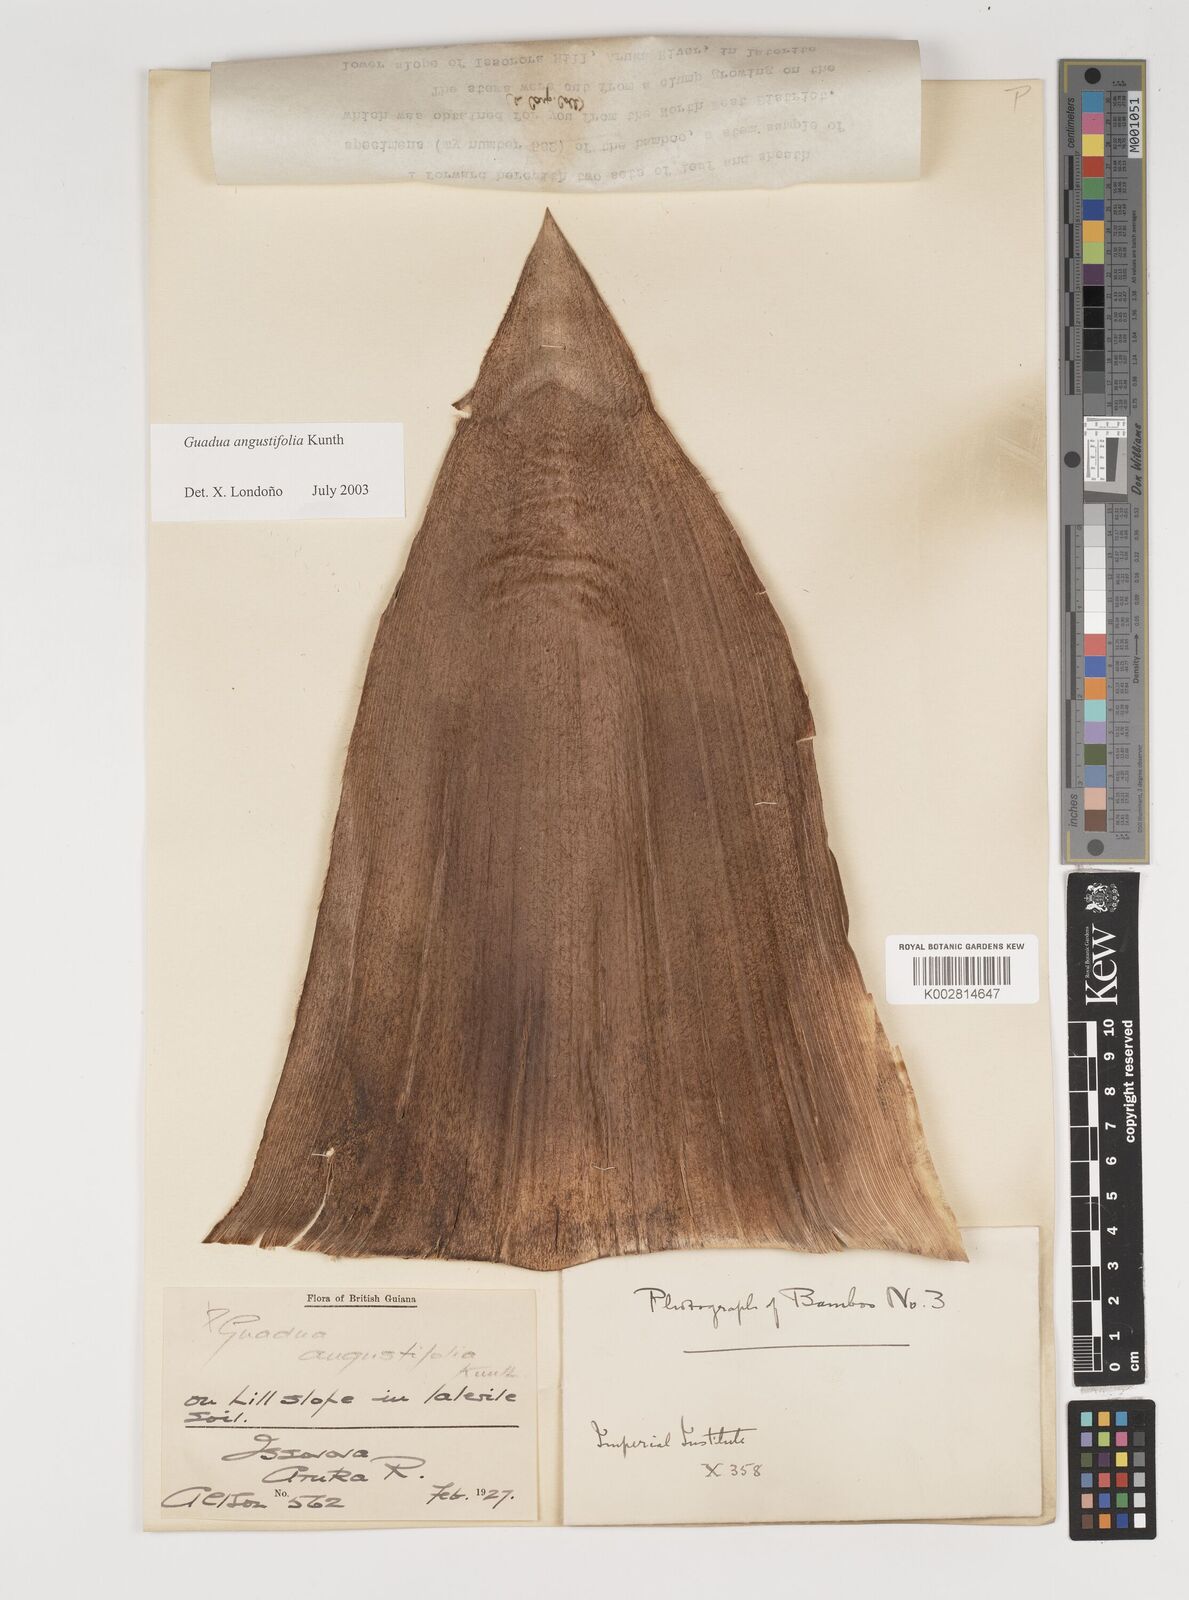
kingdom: Plantae
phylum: Tracheophyta
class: Liliopsida
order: Poales
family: Poaceae
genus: Guadua
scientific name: Guadua angustifolia
